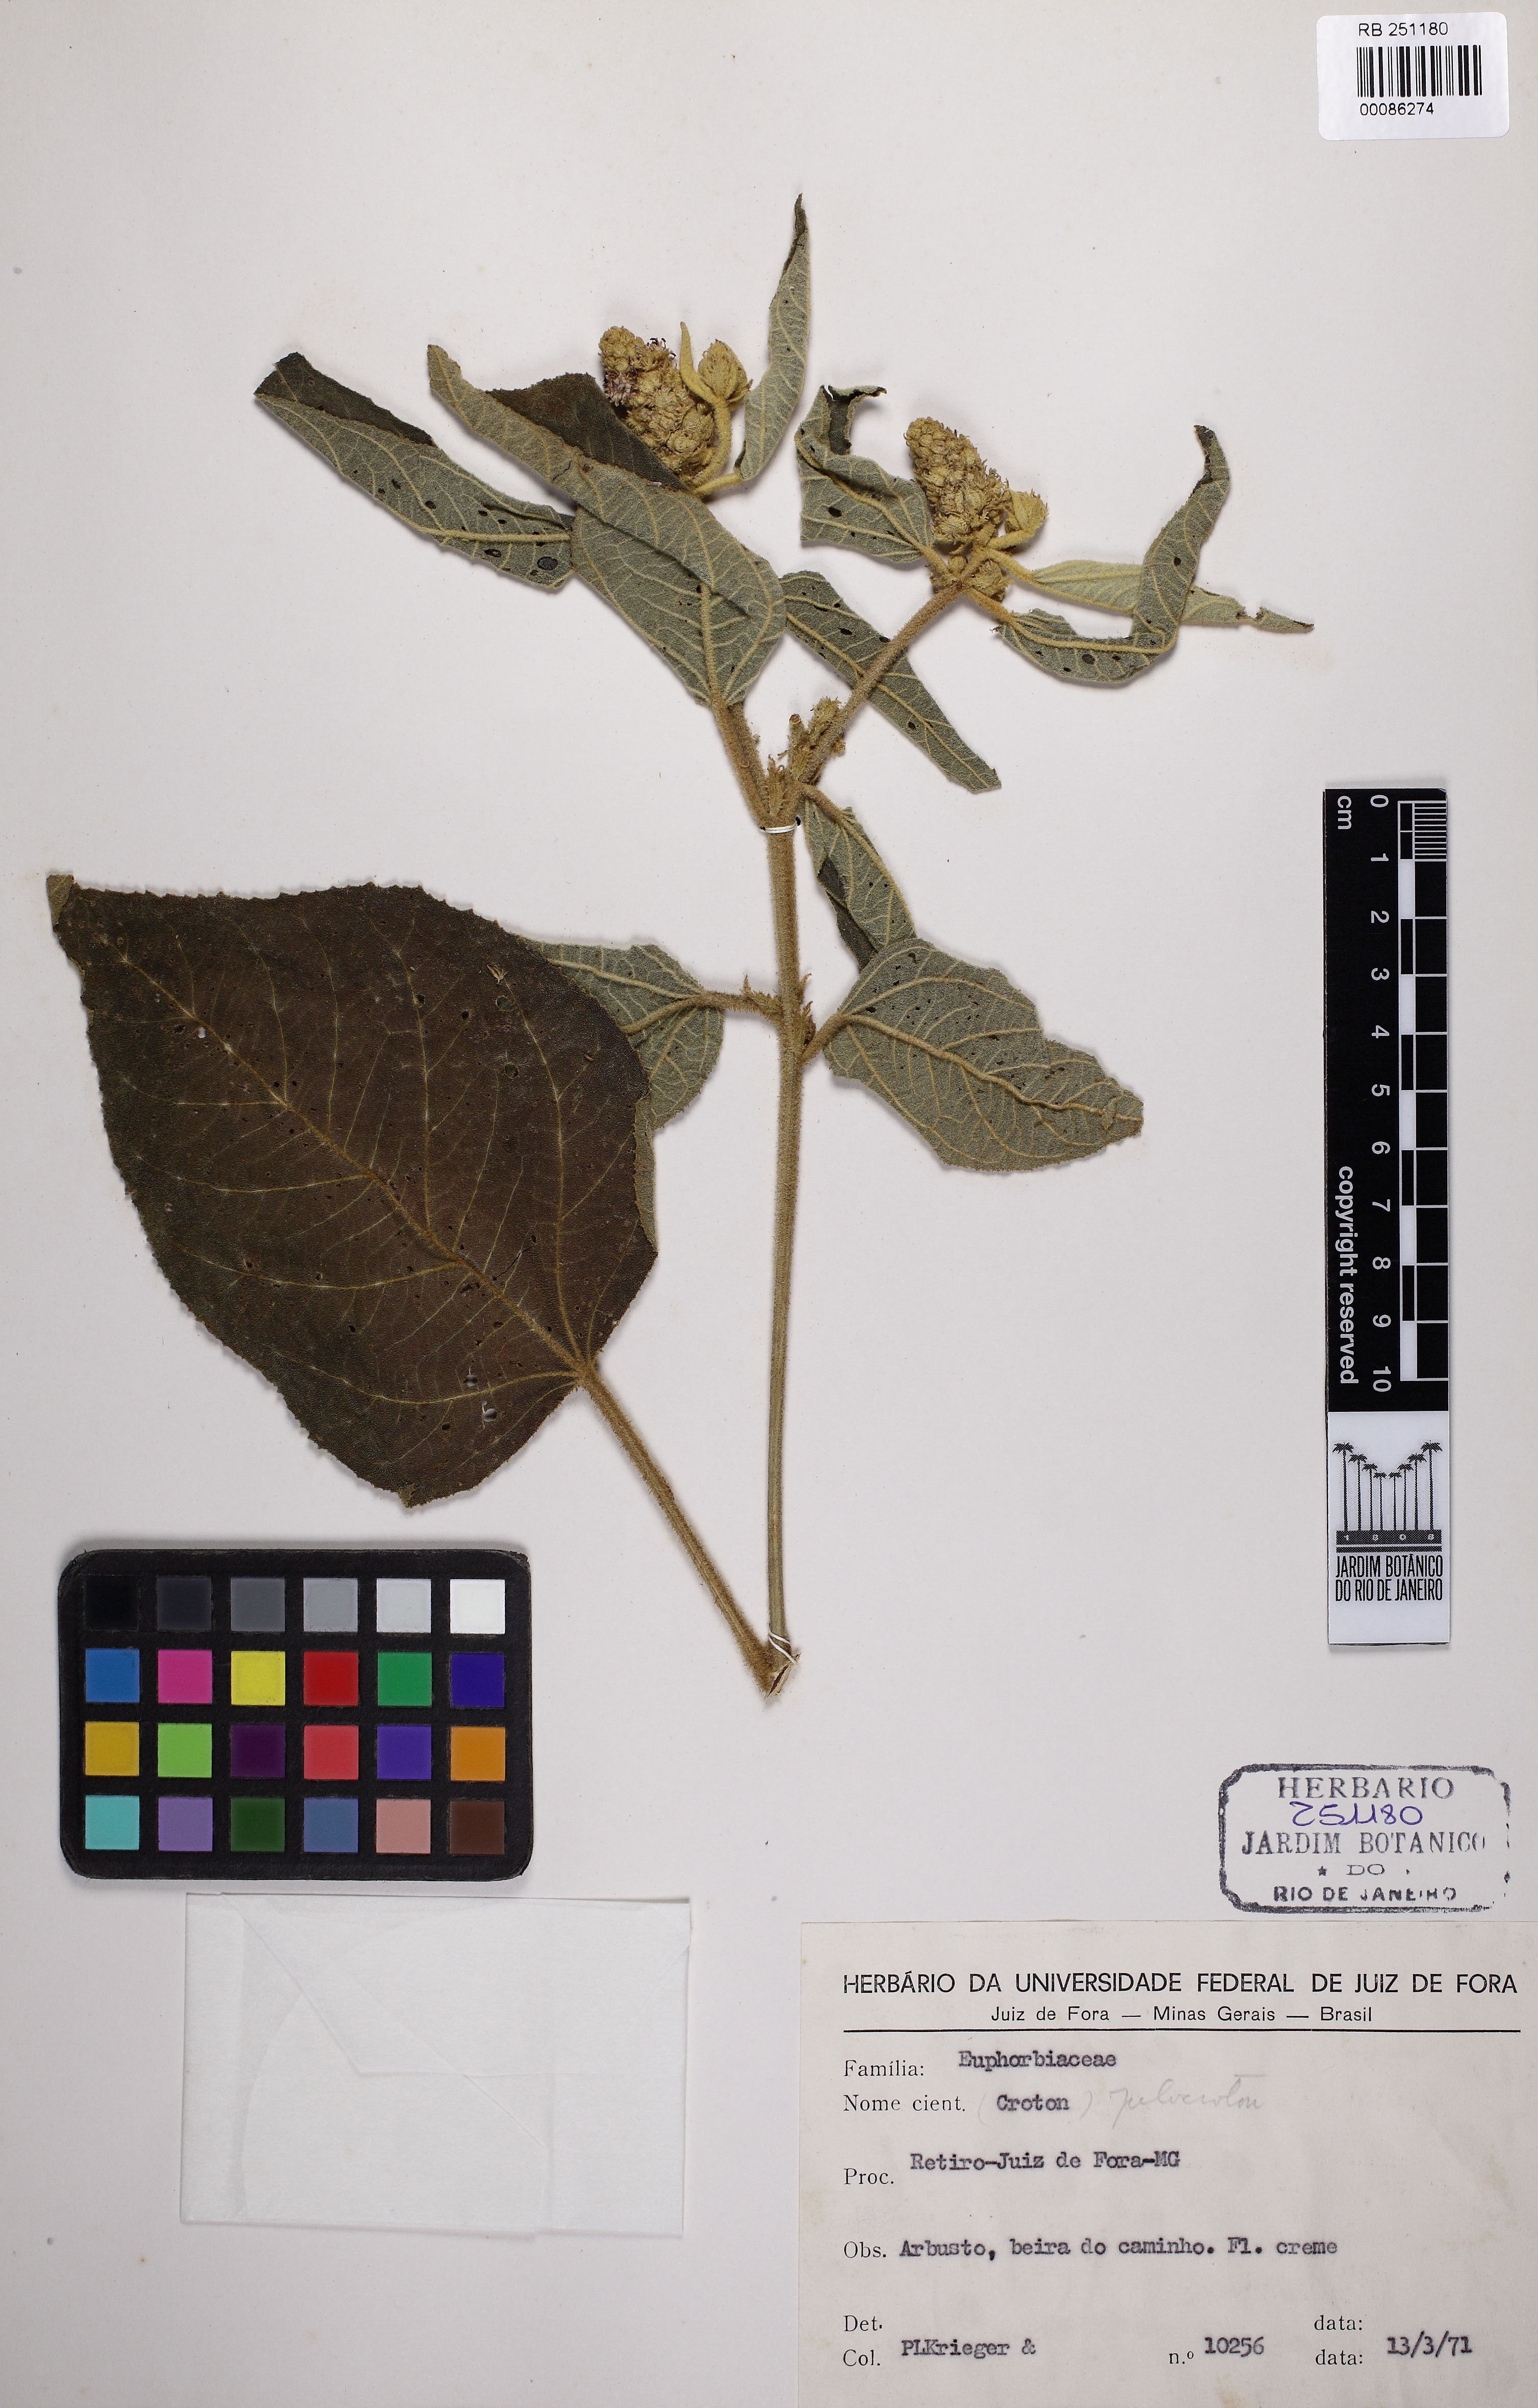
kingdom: Plantae
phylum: Tracheophyta
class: Magnoliopsida
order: Malpighiales
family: Euphorbiaceae
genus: Croton
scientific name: Croton triqueter
